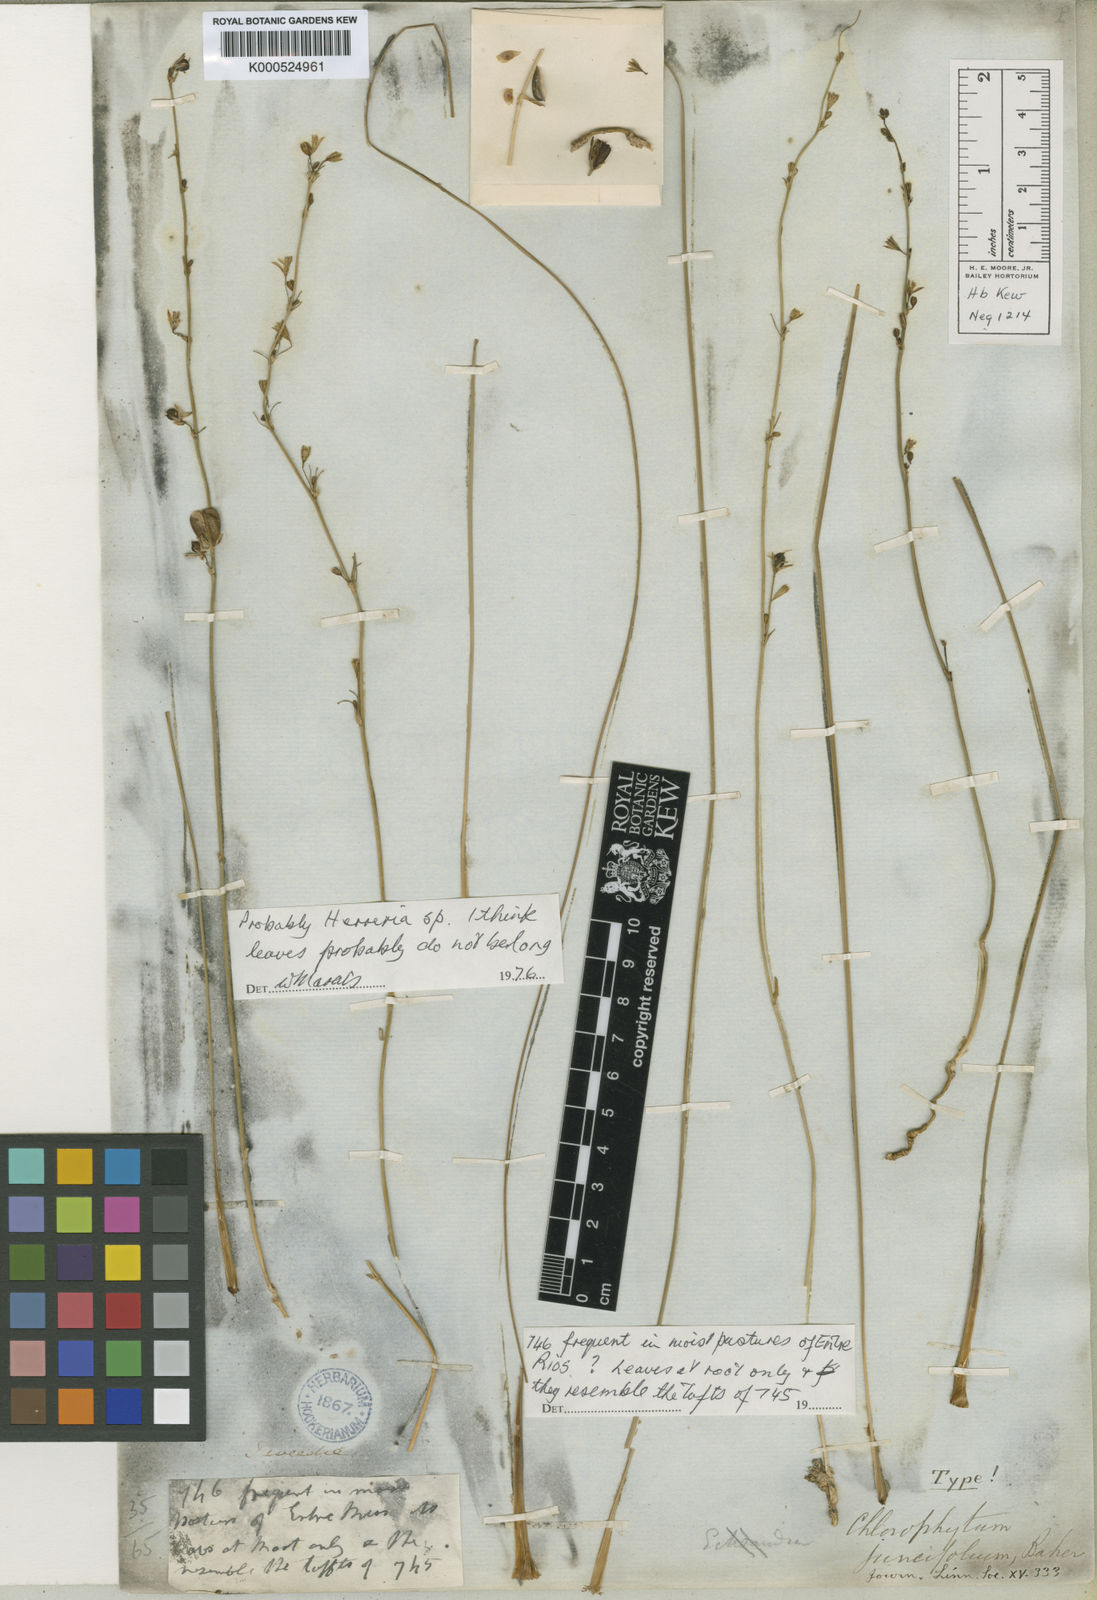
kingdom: Plantae
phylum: Tracheophyta
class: Liliopsida
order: Asparagales
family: Asparagaceae
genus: Herreria
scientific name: Herreria
